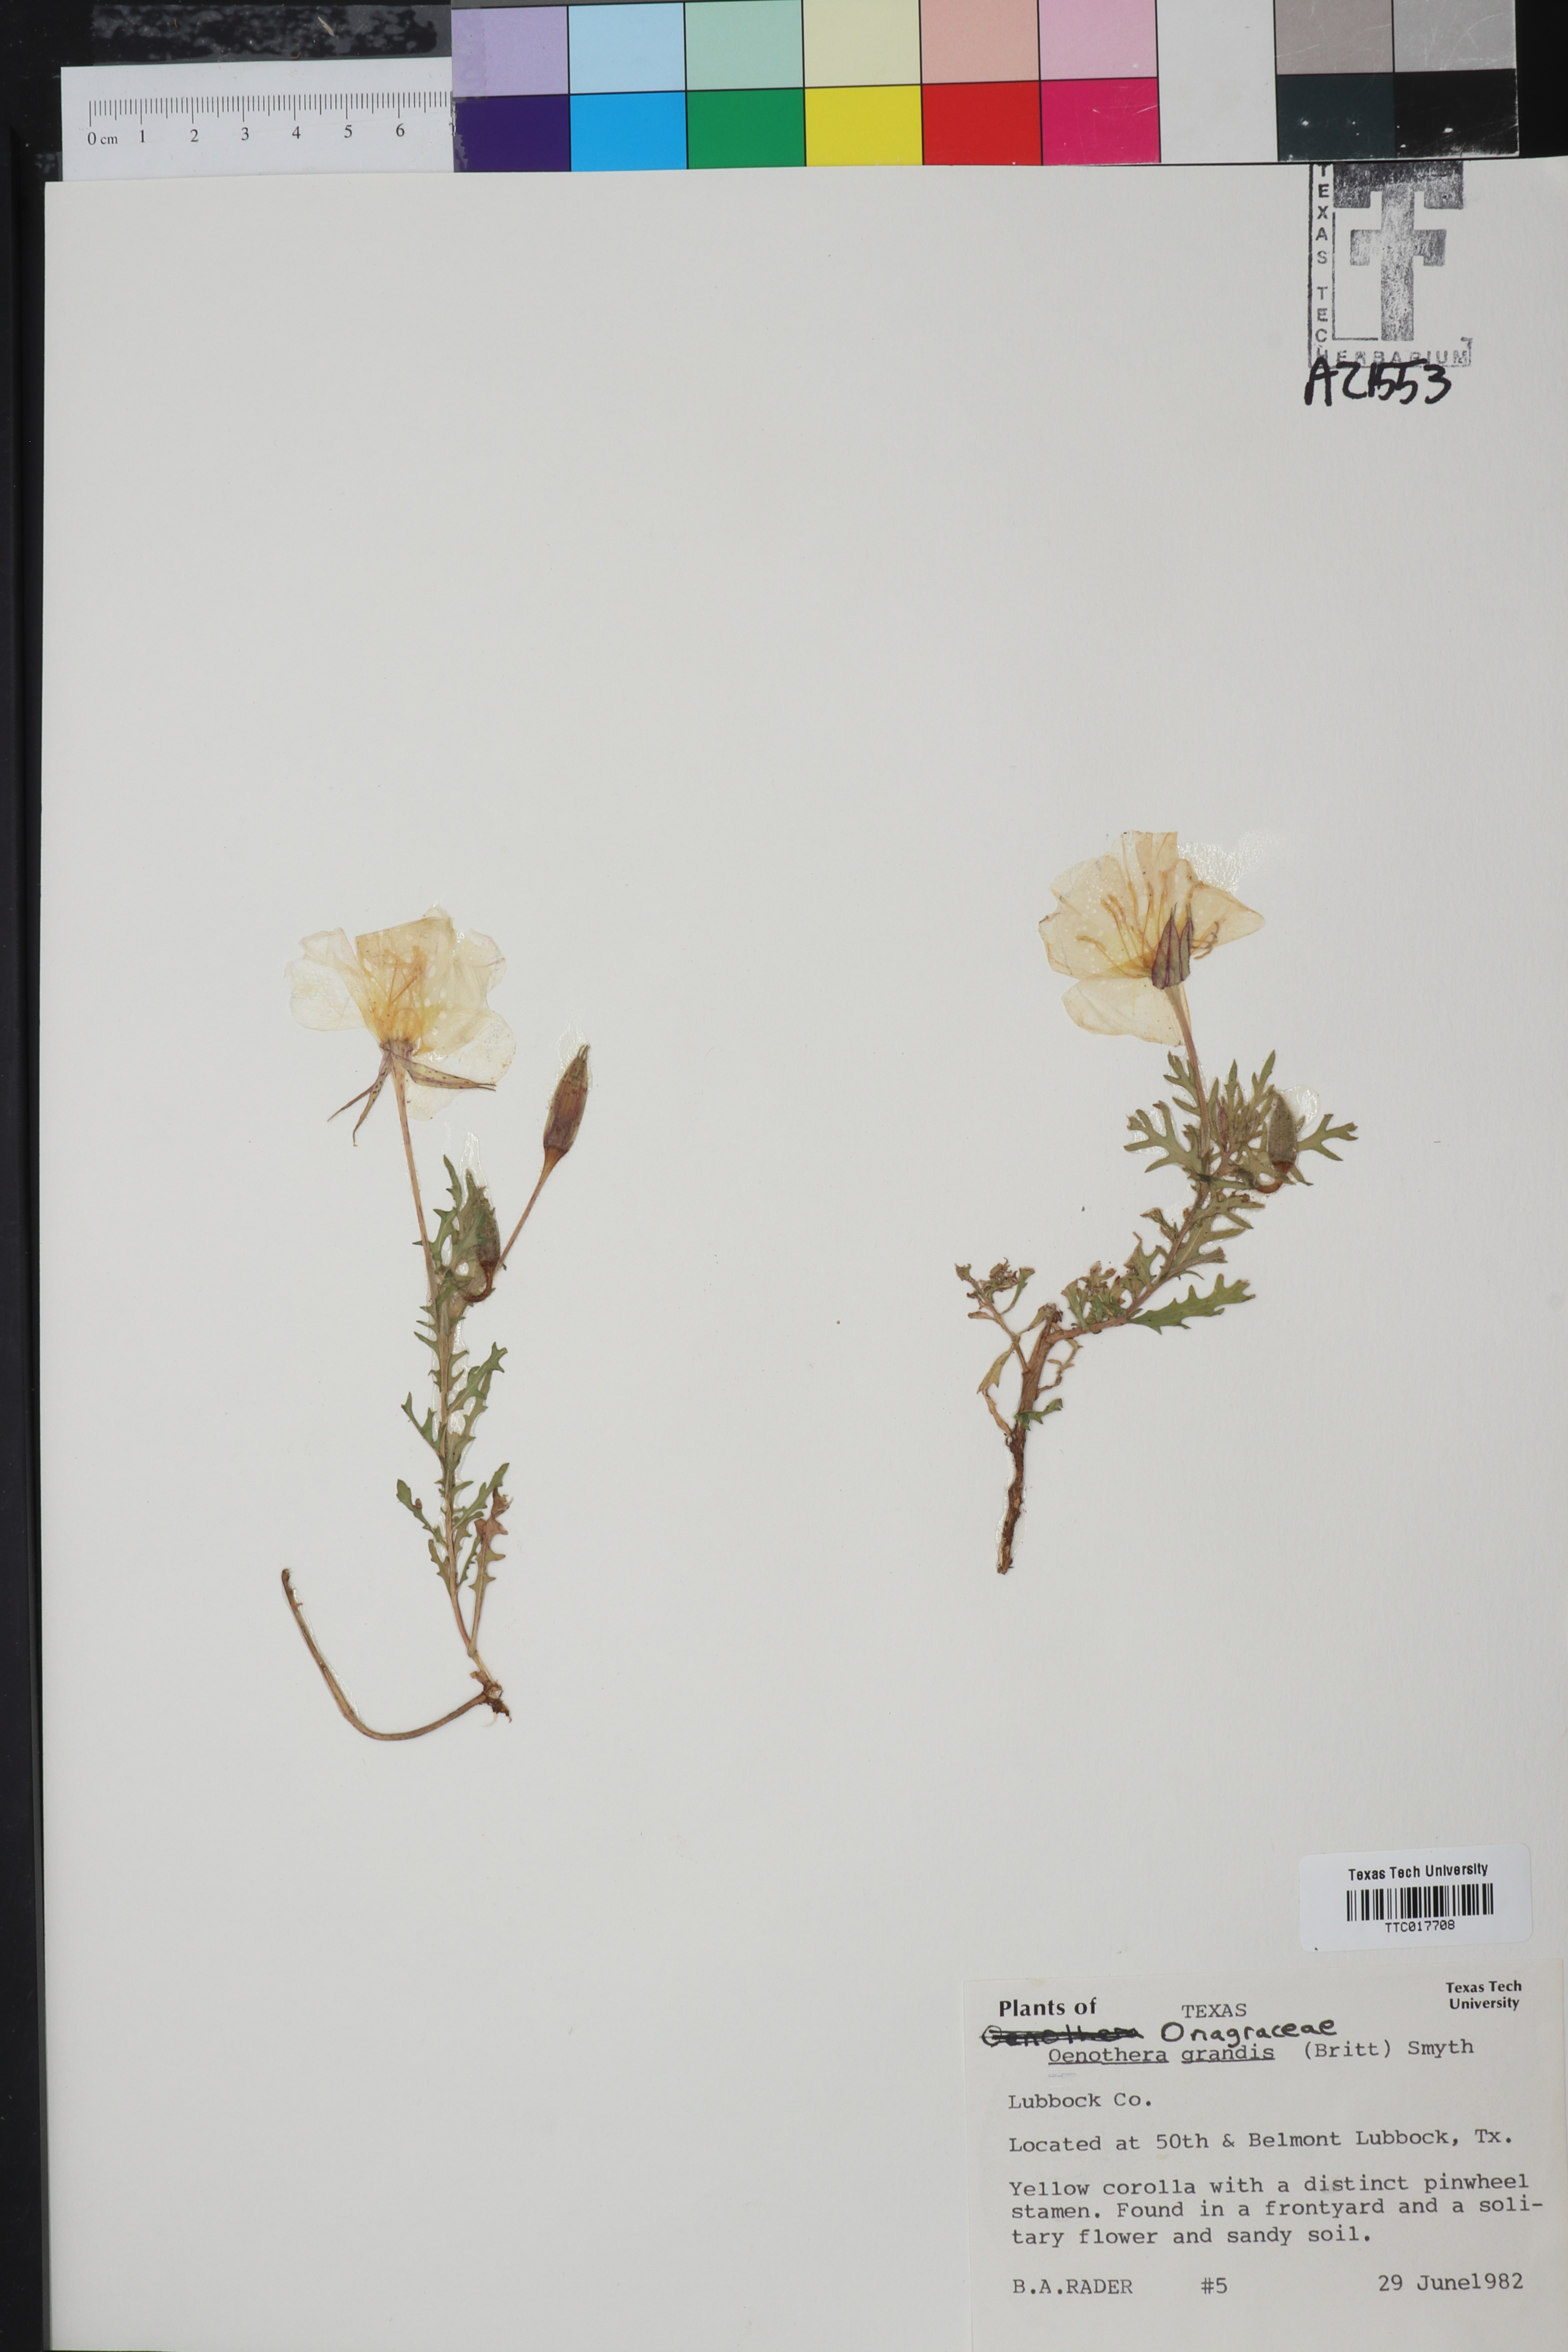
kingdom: Plantae
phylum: Tracheophyta
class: Magnoliopsida
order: Myrtales
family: Onagraceae
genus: Oenothera
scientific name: Oenothera grandis
